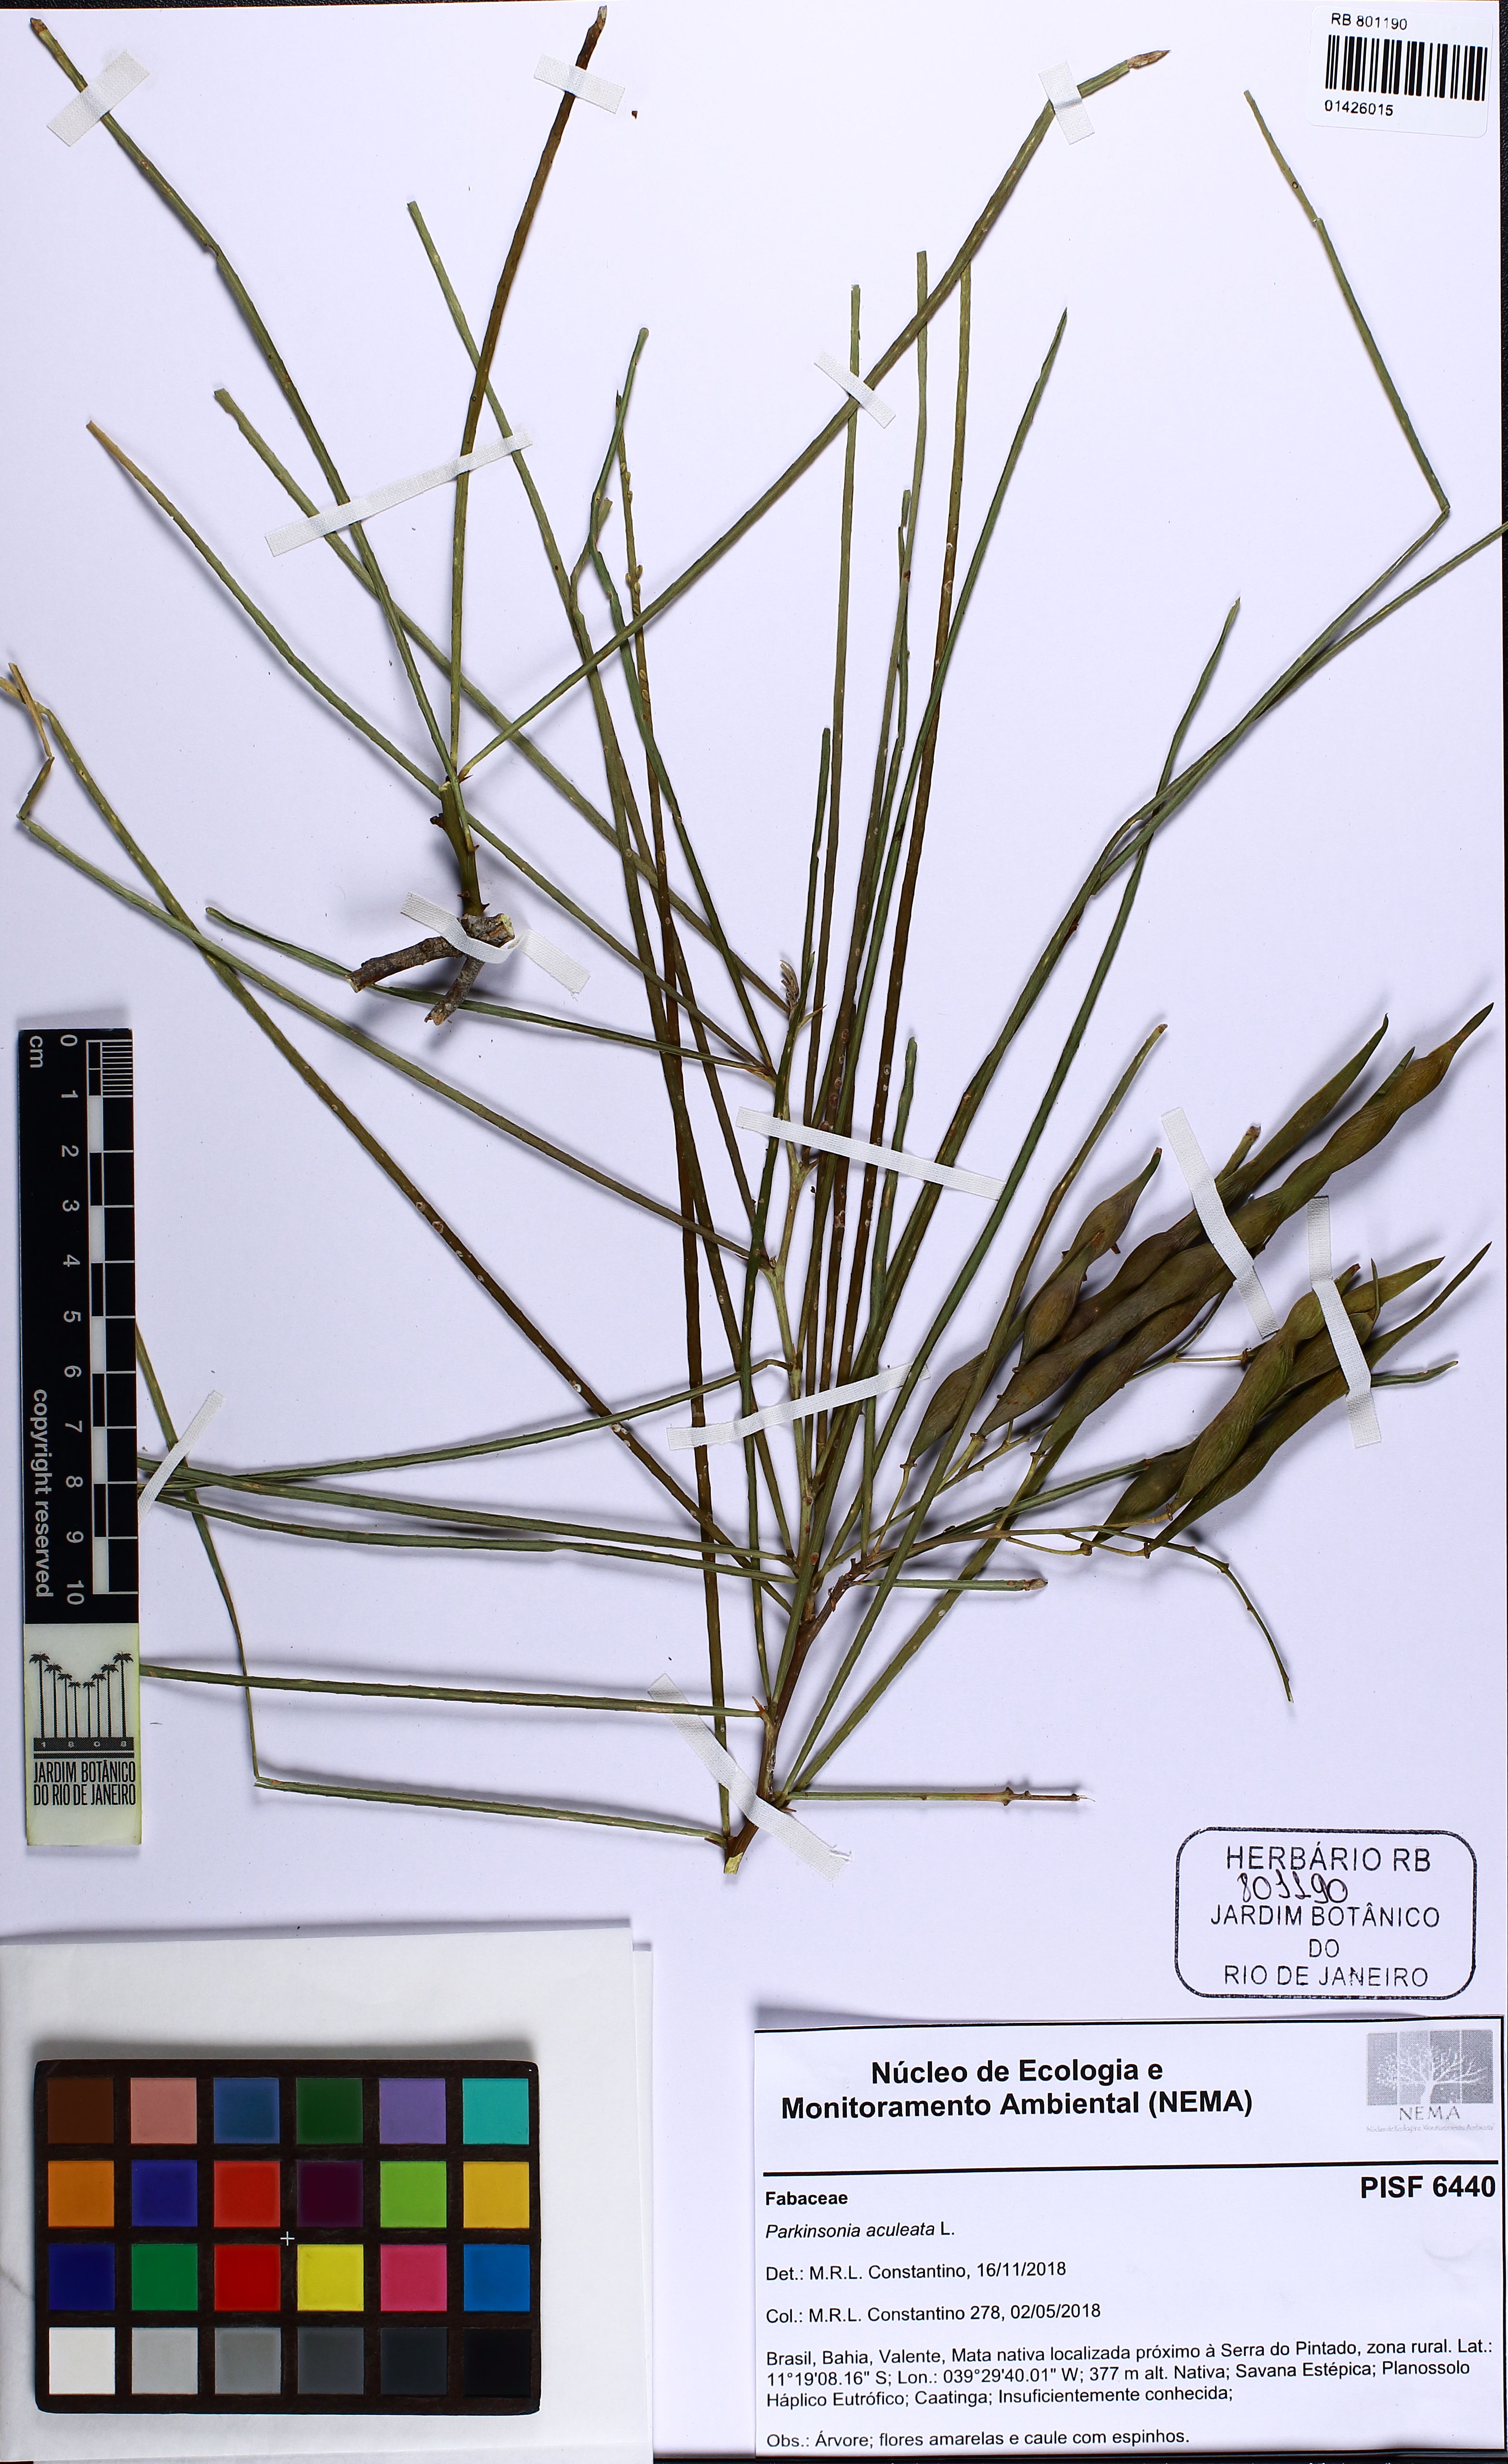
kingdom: Plantae
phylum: Tracheophyta
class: Magnoliopsida
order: Fabales
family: Fabaceae
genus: Parkinsonia
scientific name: Parkinsonia aculeata
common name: Jerusalem thorn
